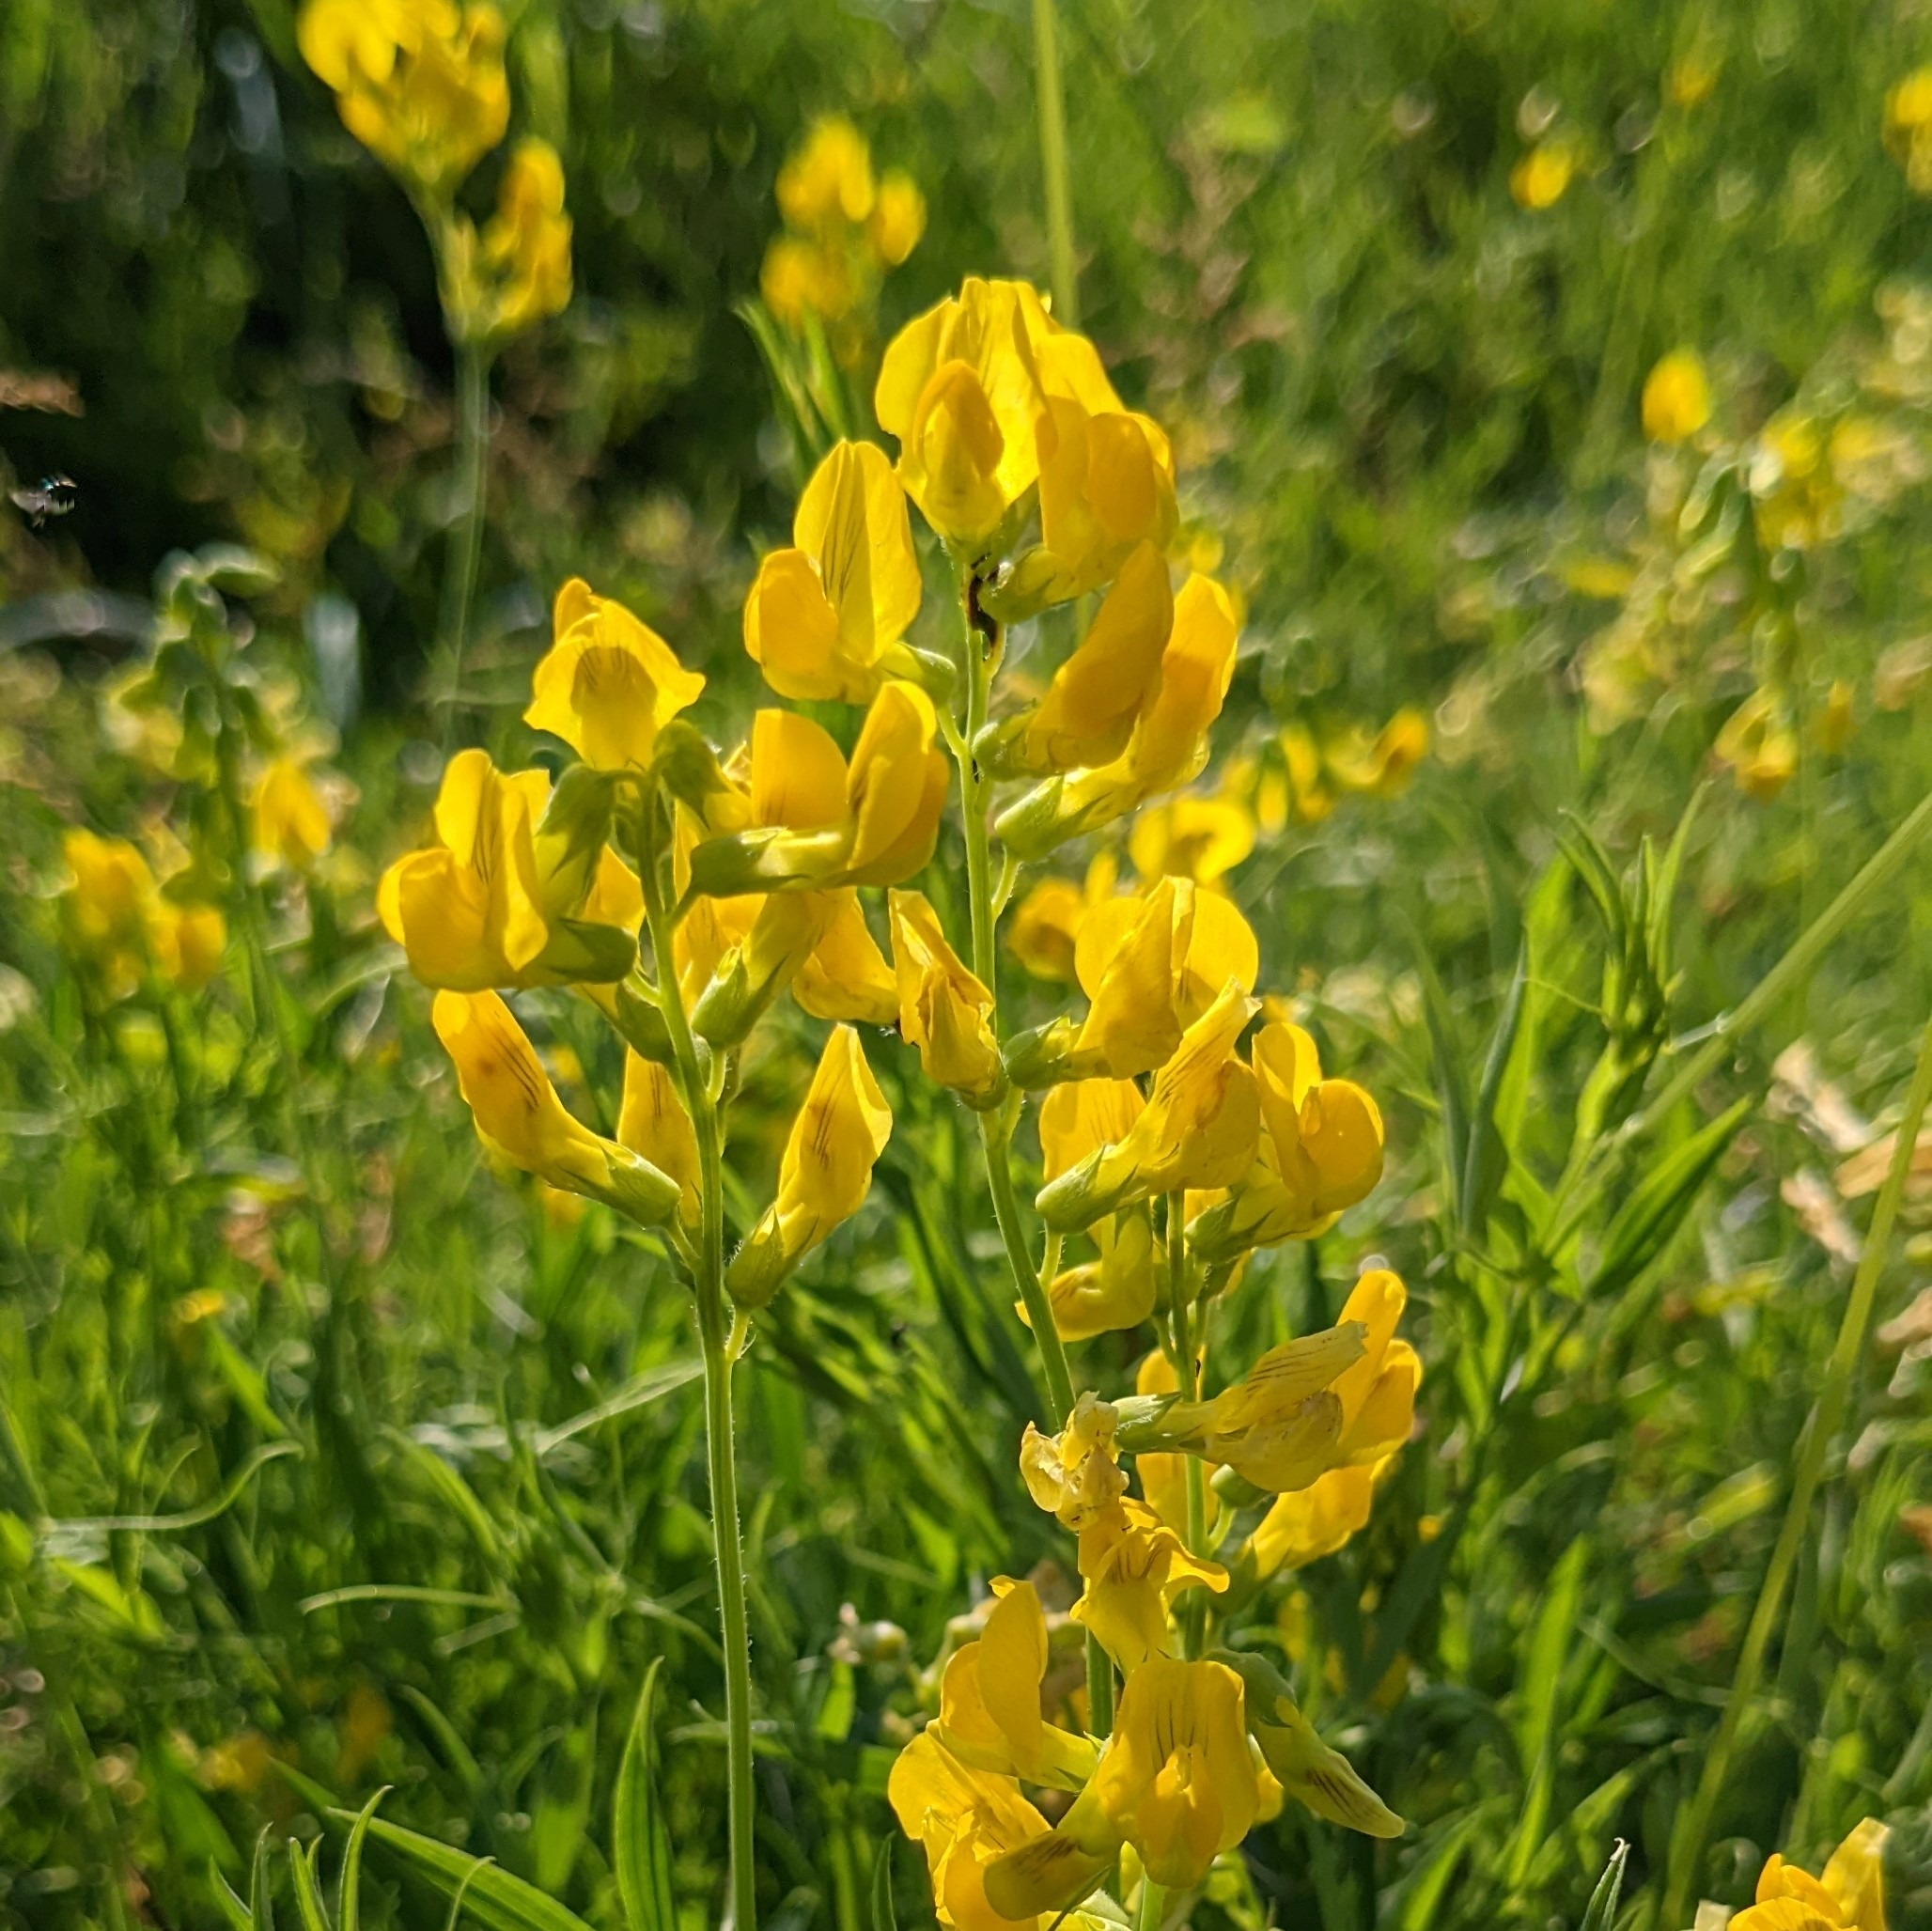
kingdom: Plantae
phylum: Tracheophyta
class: Magnoliopsida
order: Fabales
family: Fabaceae
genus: Lathyrus
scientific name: Lathyrus pratensis
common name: Gul fladbælg
